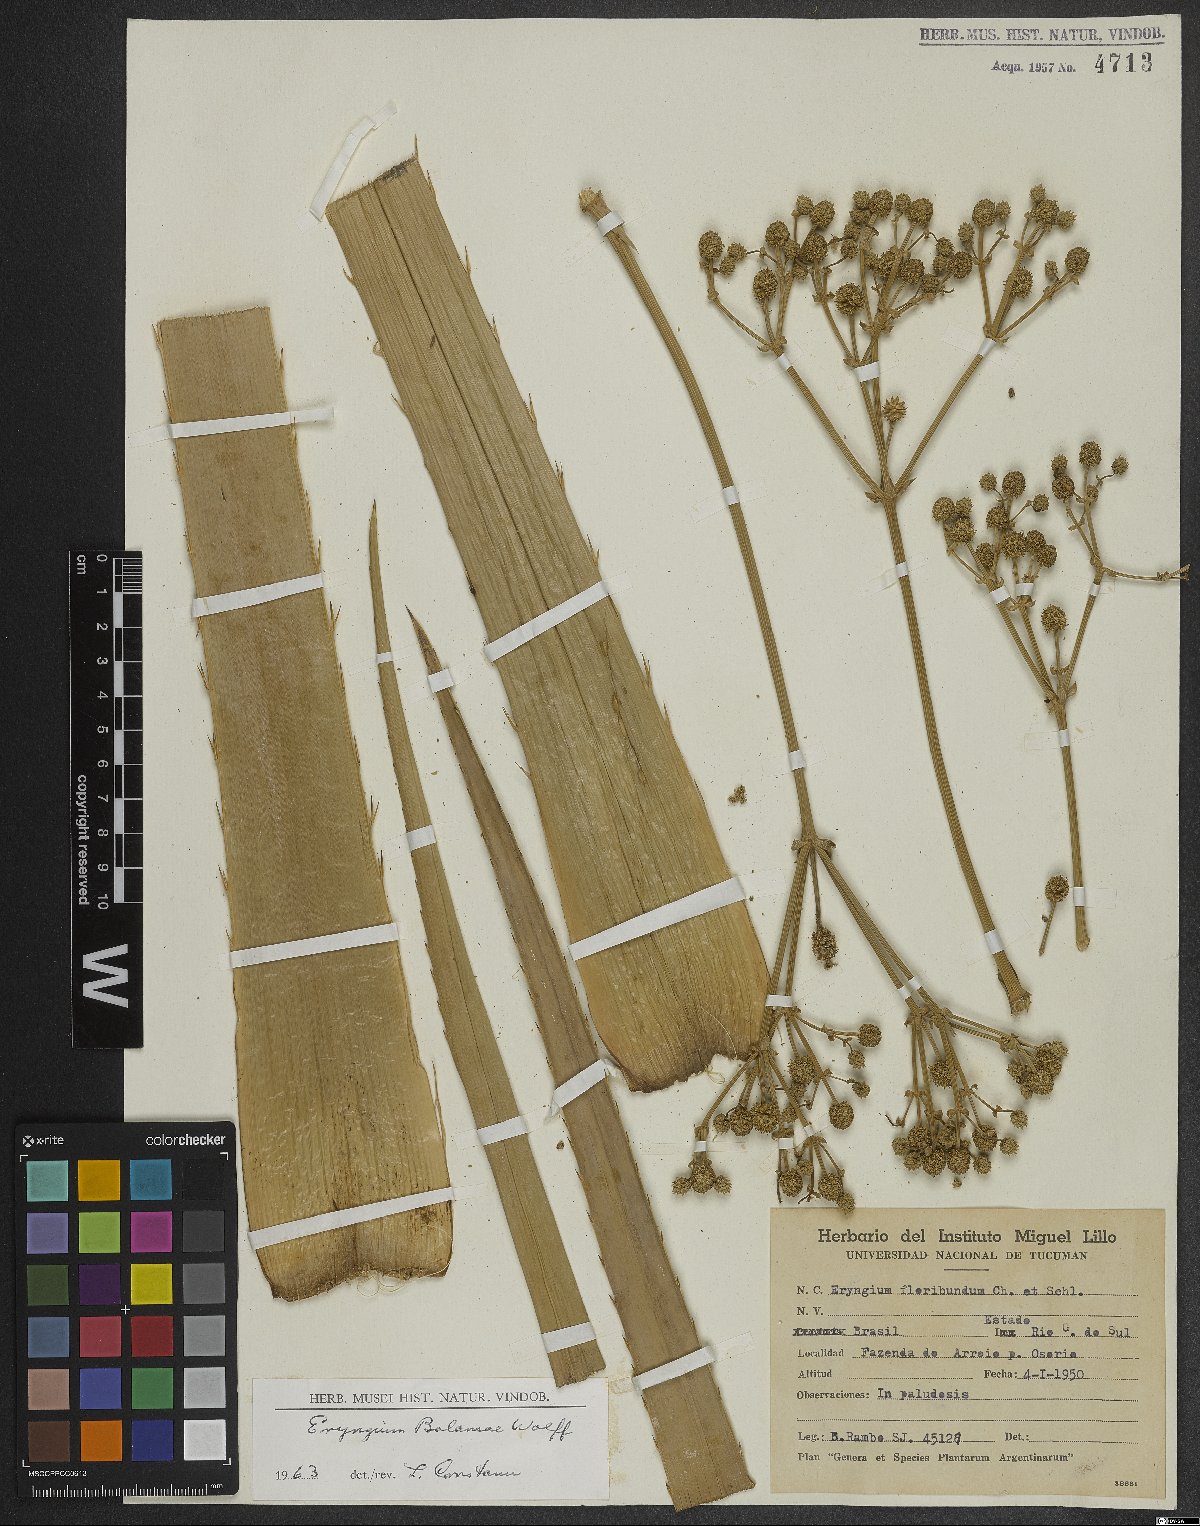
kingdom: Plantae
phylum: Tracheophyta
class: Magnoliopsida
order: Apiales
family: Apiaceae
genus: Eryngium
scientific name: Eryngium balansae
